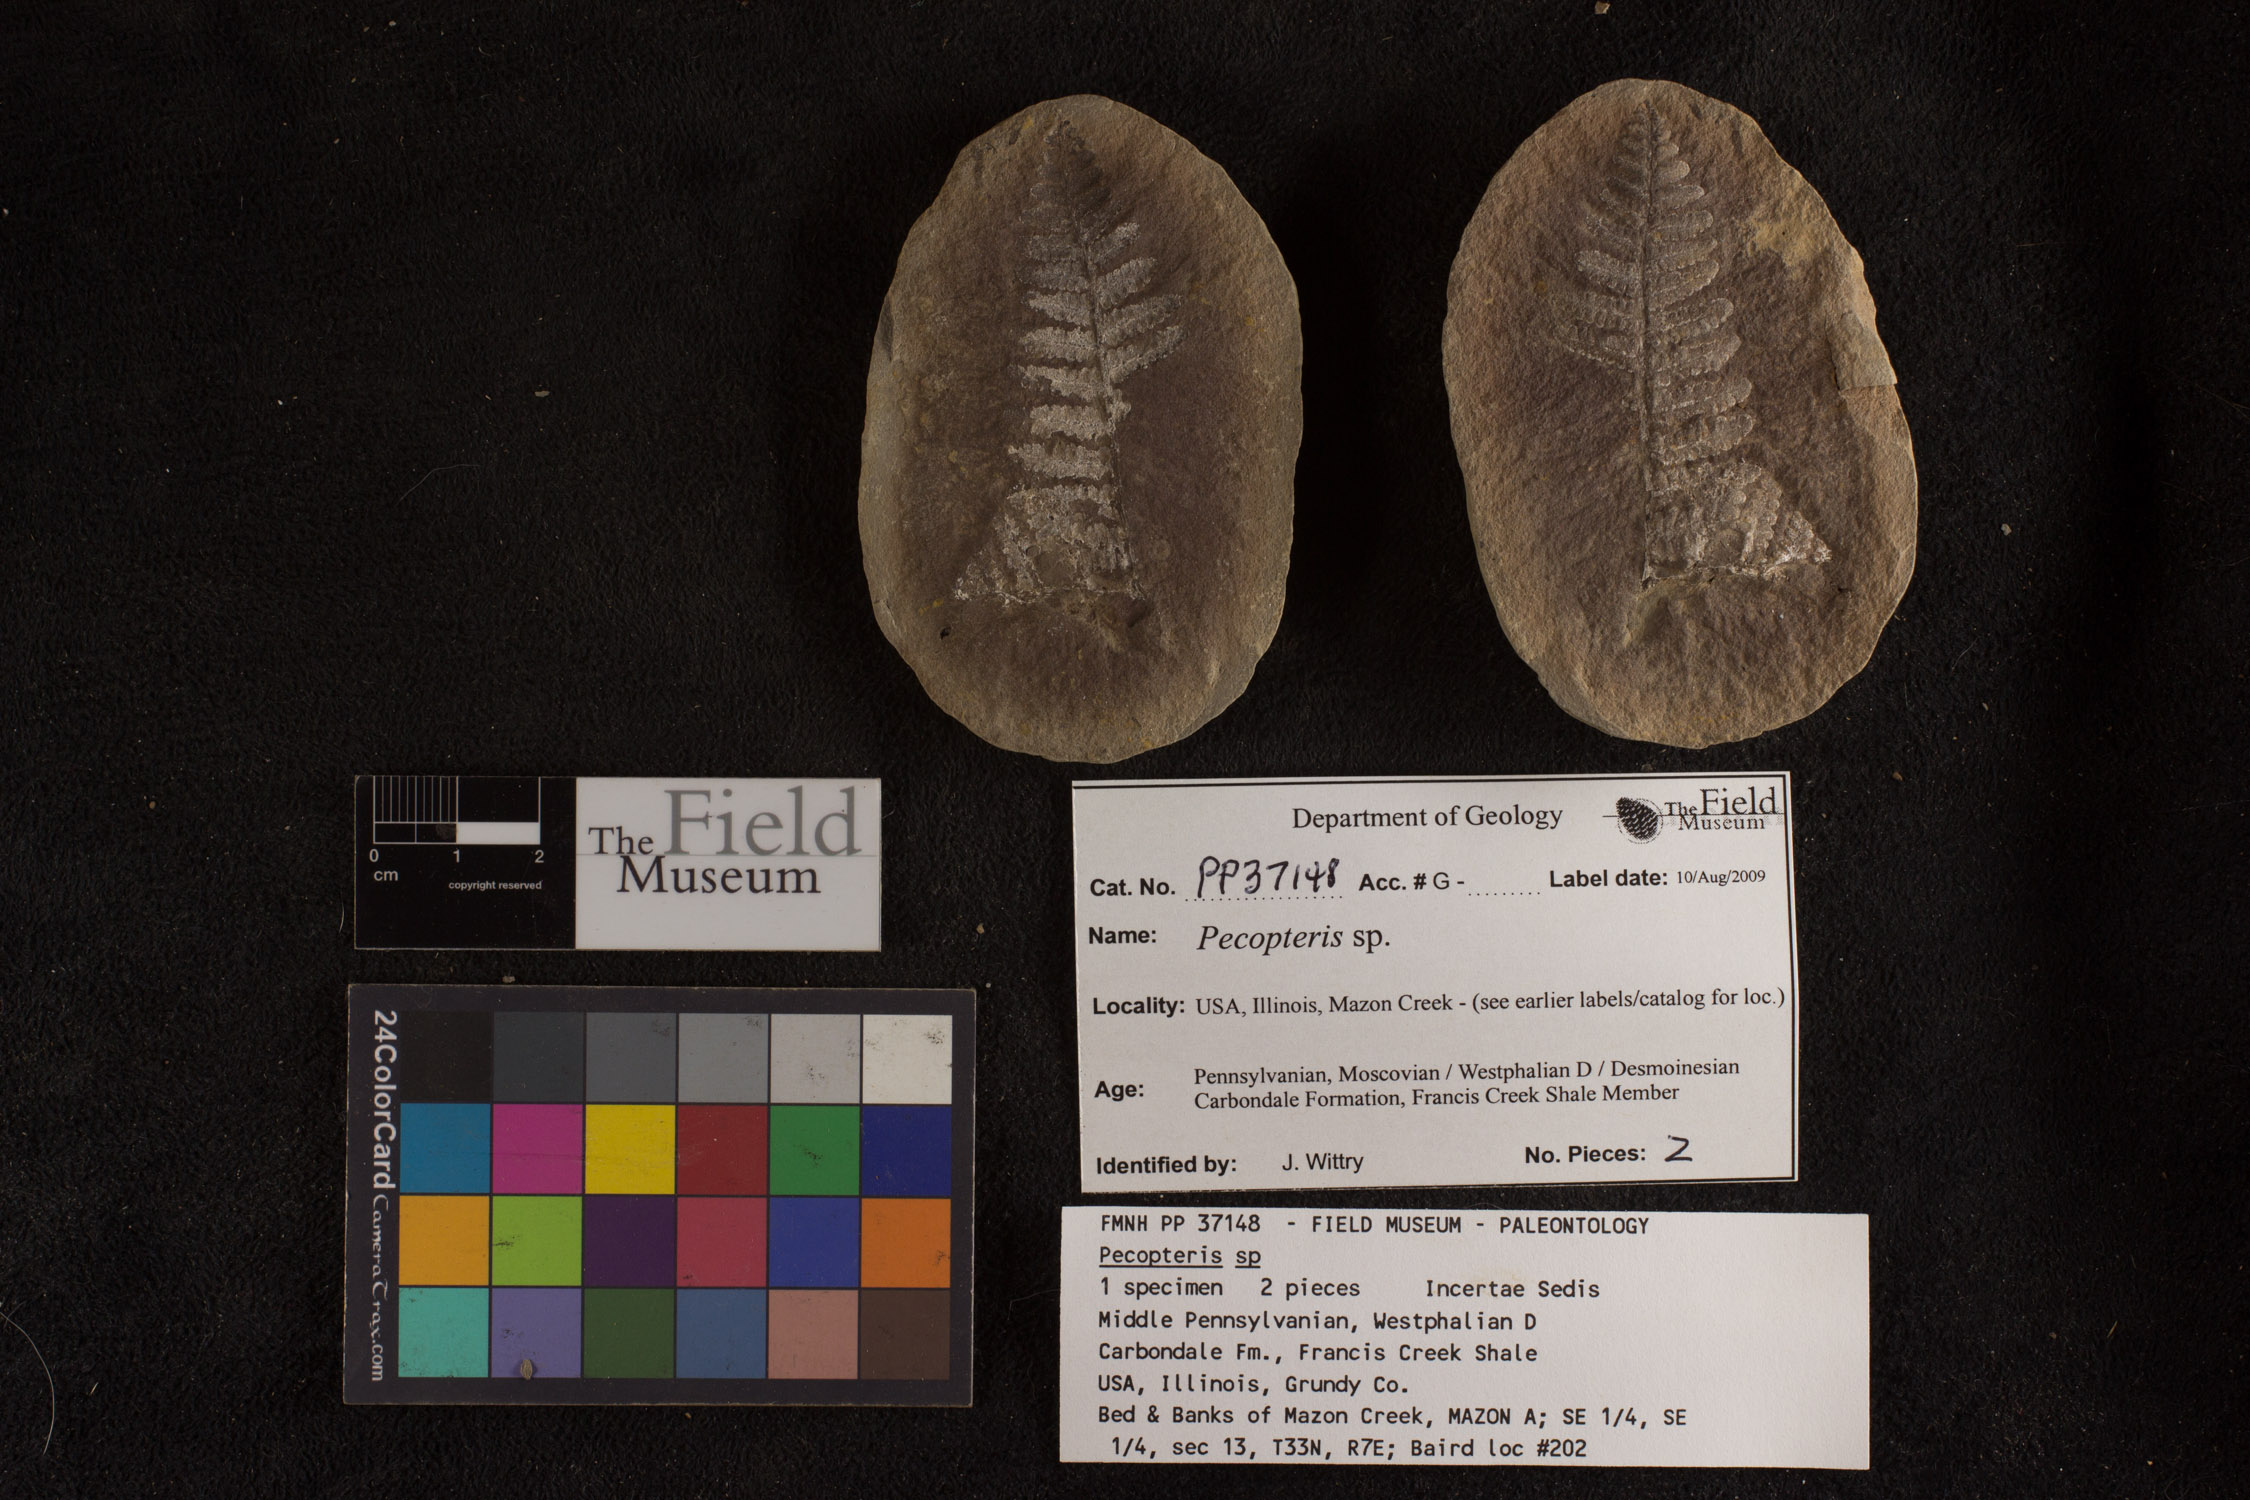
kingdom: Plantae
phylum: Tracheophyta
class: Polypodiopsida
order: Marattiales
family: Asterothecaceae
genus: Pecopteris
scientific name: Pecopteris
